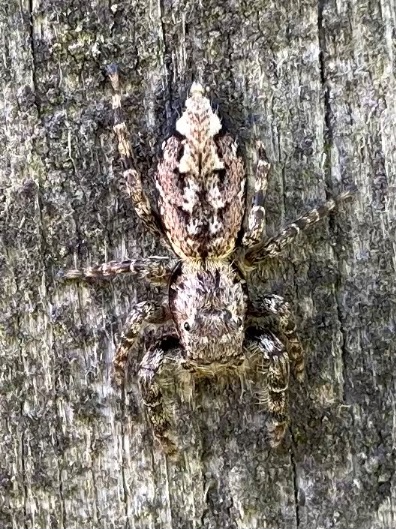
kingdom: Animalia
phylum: Arthropoda
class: Arachnida
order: Araneae
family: Salticidae
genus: Marpissa
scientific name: Marpissa muscosa
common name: Stor springedderkop
